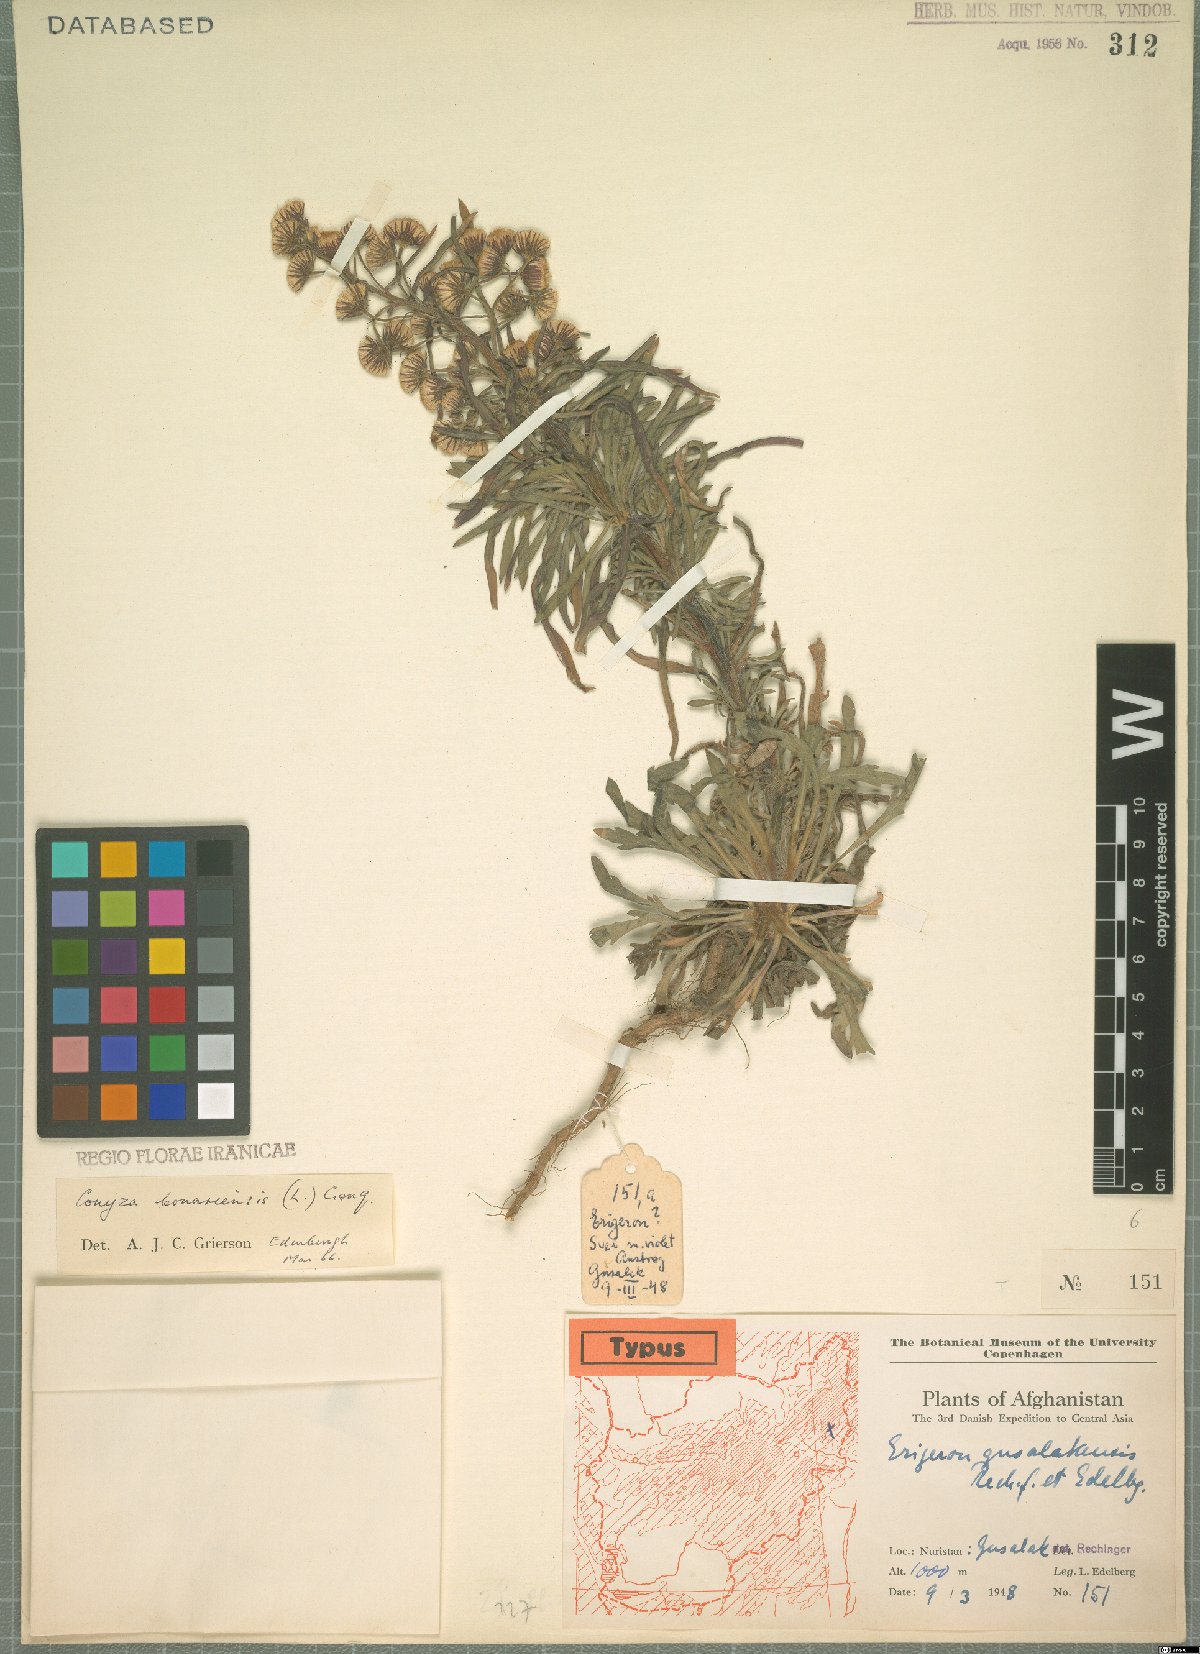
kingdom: Plantae
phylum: Tracheophyta
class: Magnoliopsida
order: Asterales
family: Asteraceae
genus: Erigeron
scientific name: Erigeron bonariensis
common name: Argentine fleabane
